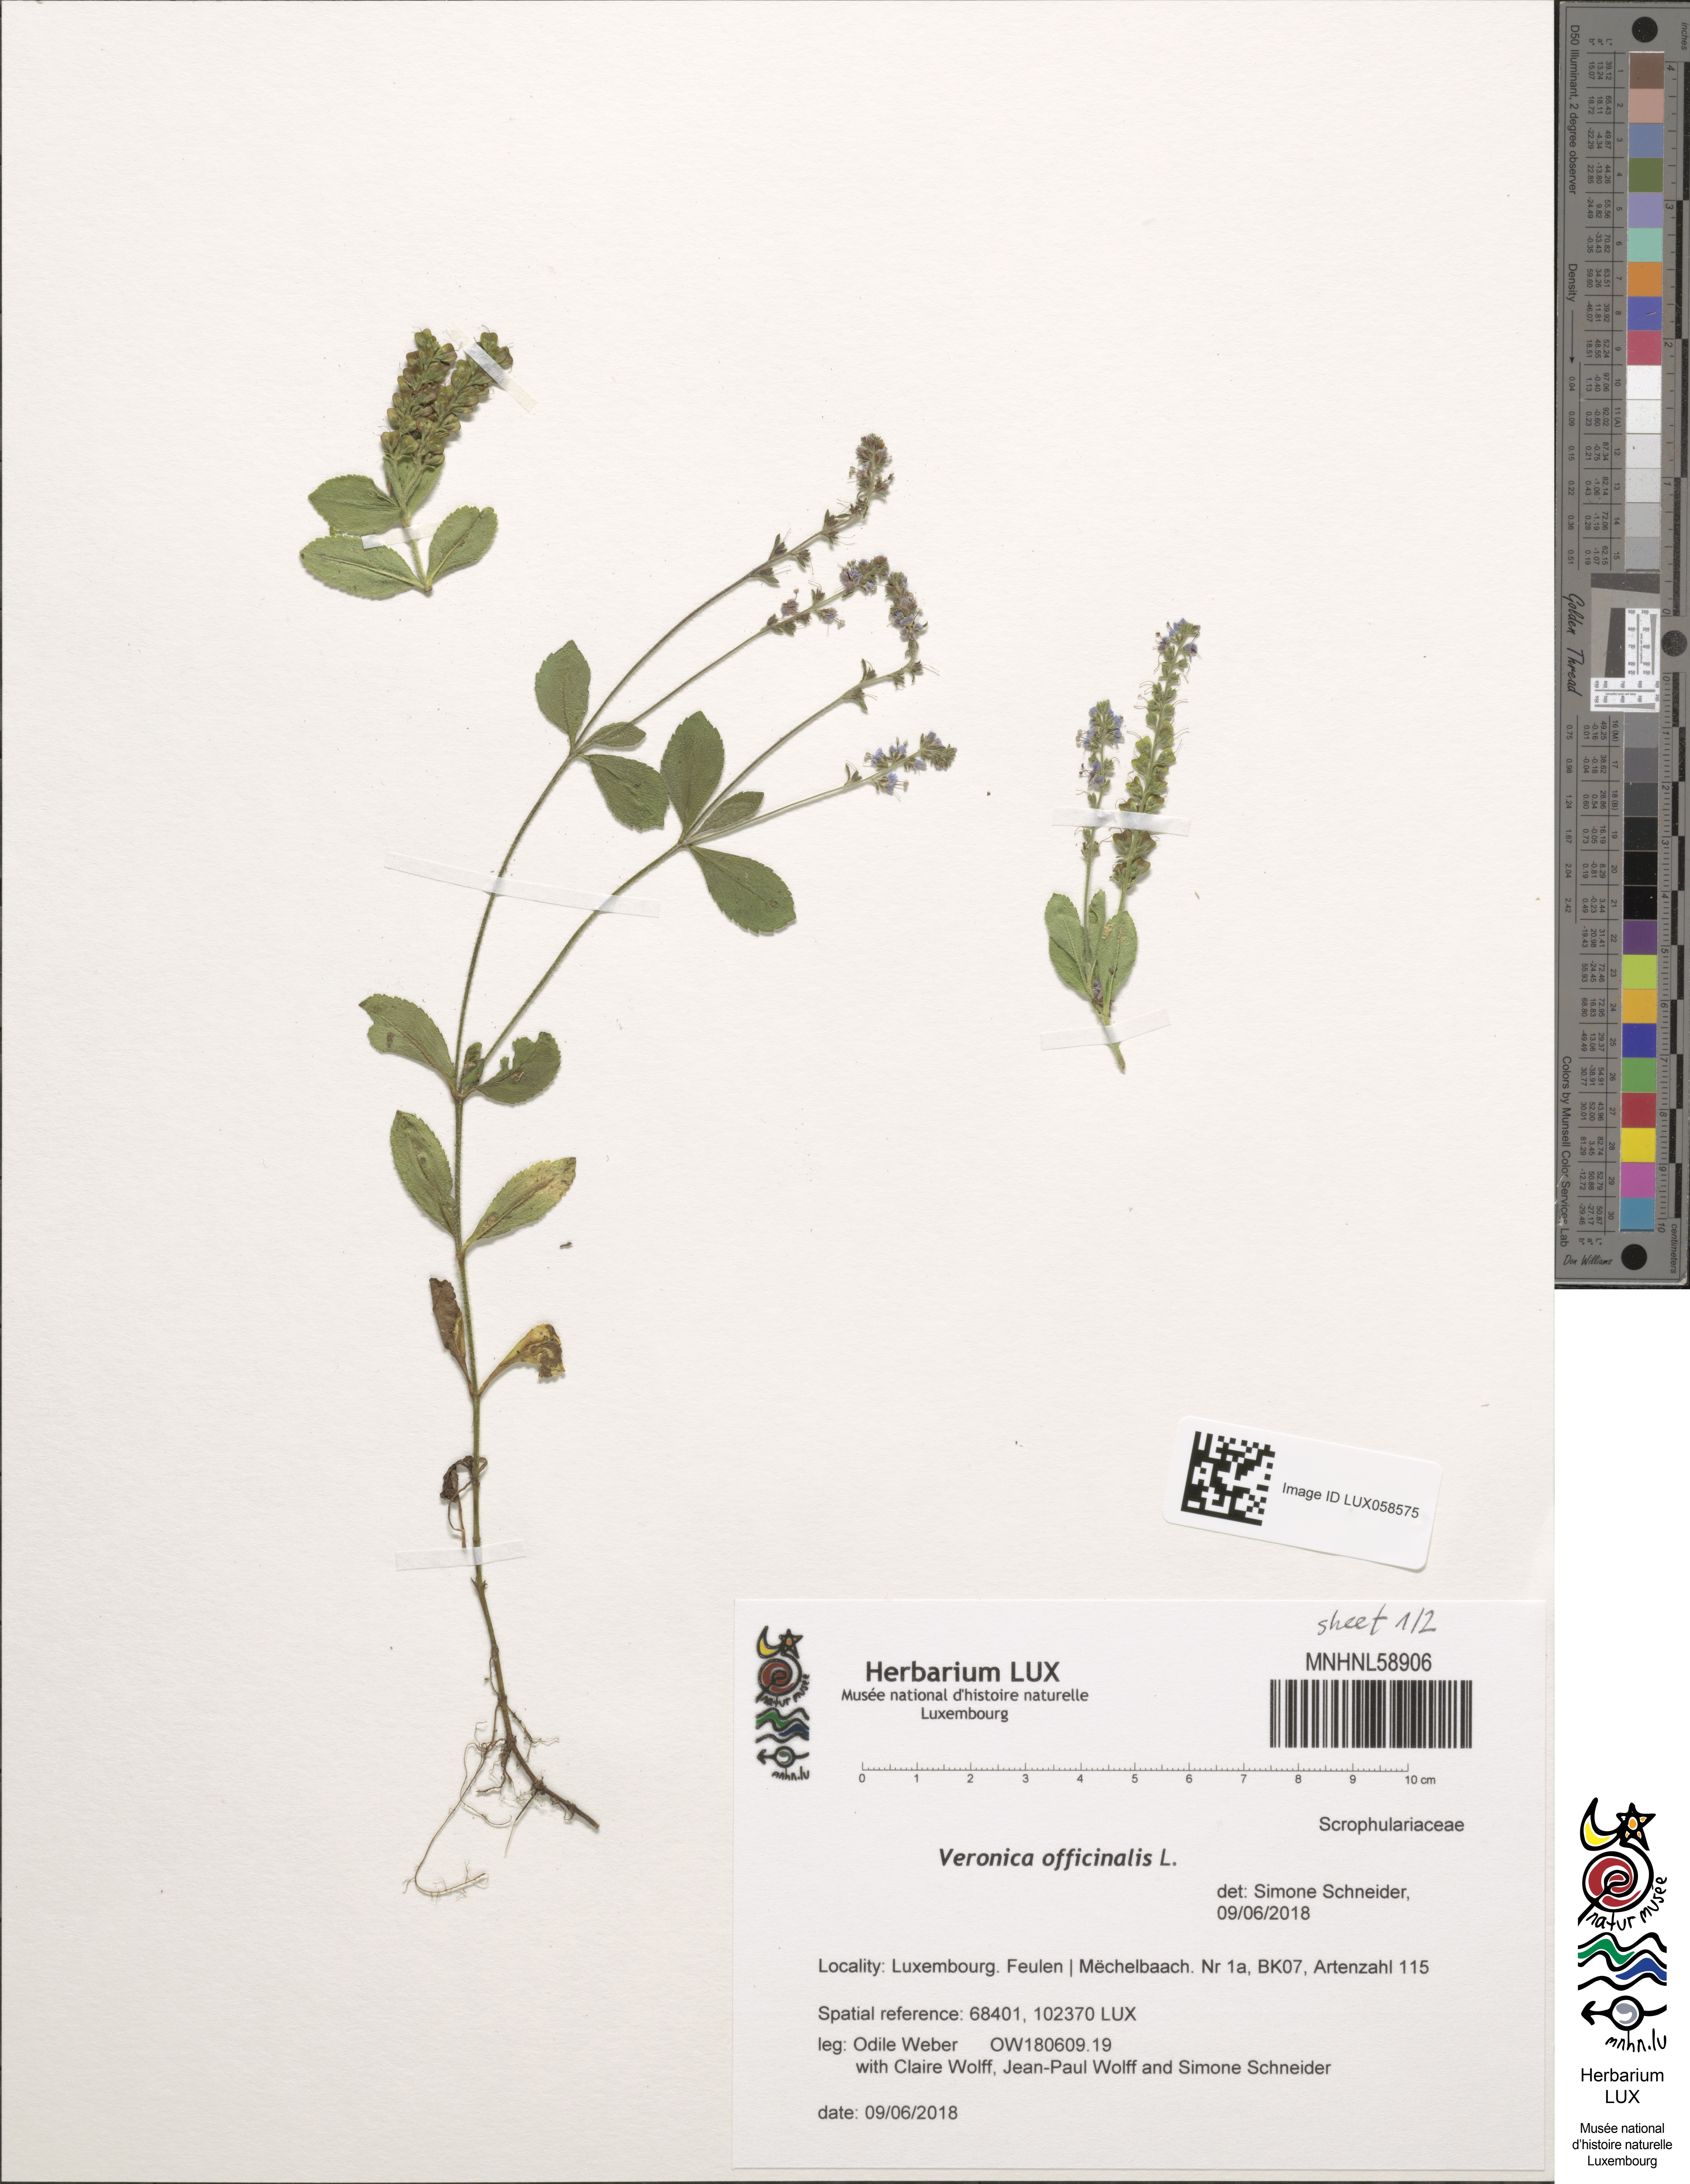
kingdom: Plantae
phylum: Tracheophyta
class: Magnoliopsida
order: Lamiales
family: Plantaginaceae
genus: Veronica
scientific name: Veronica officinalis
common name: Common speedwell
